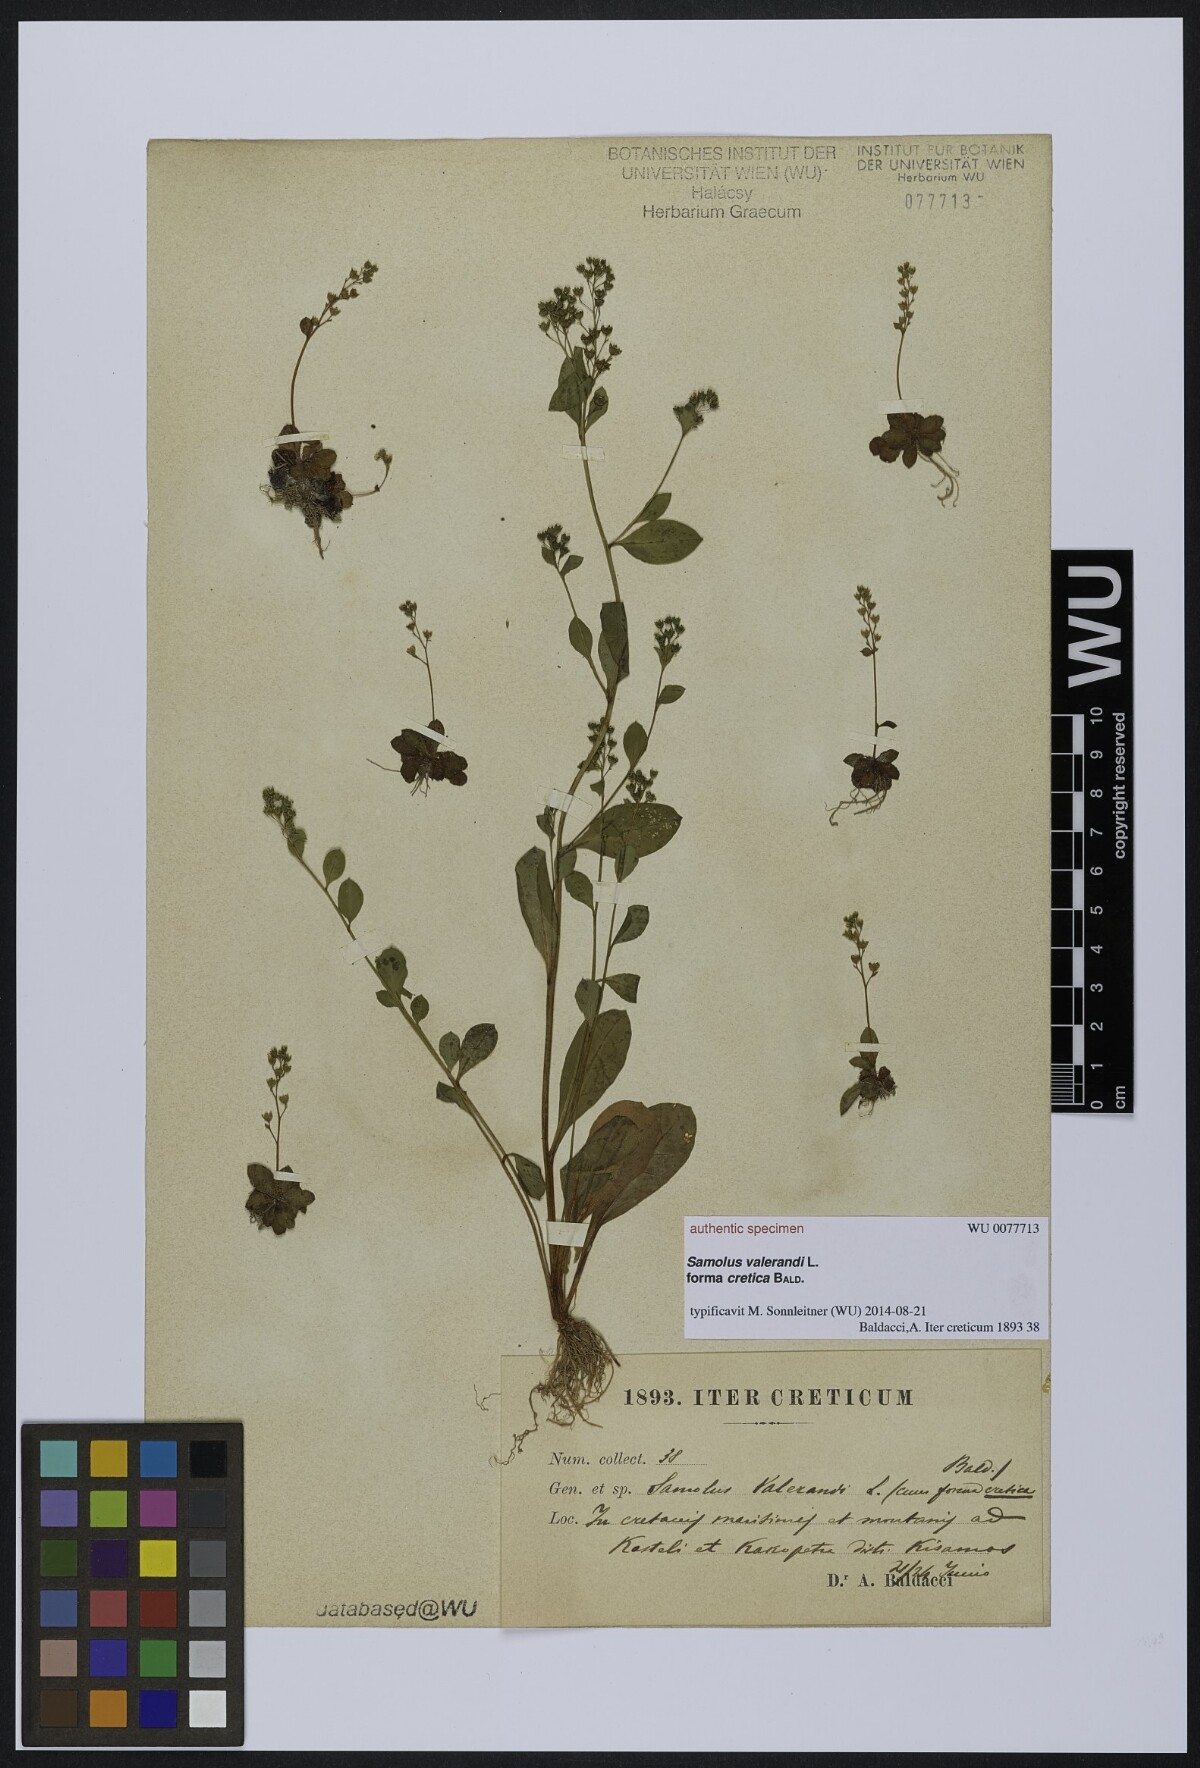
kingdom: Plantae
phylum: Tracheophyta
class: Magnoliopsida
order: Ericales
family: Primulaceae
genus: Samolus
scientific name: Samolus valerandi
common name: Brookweed
